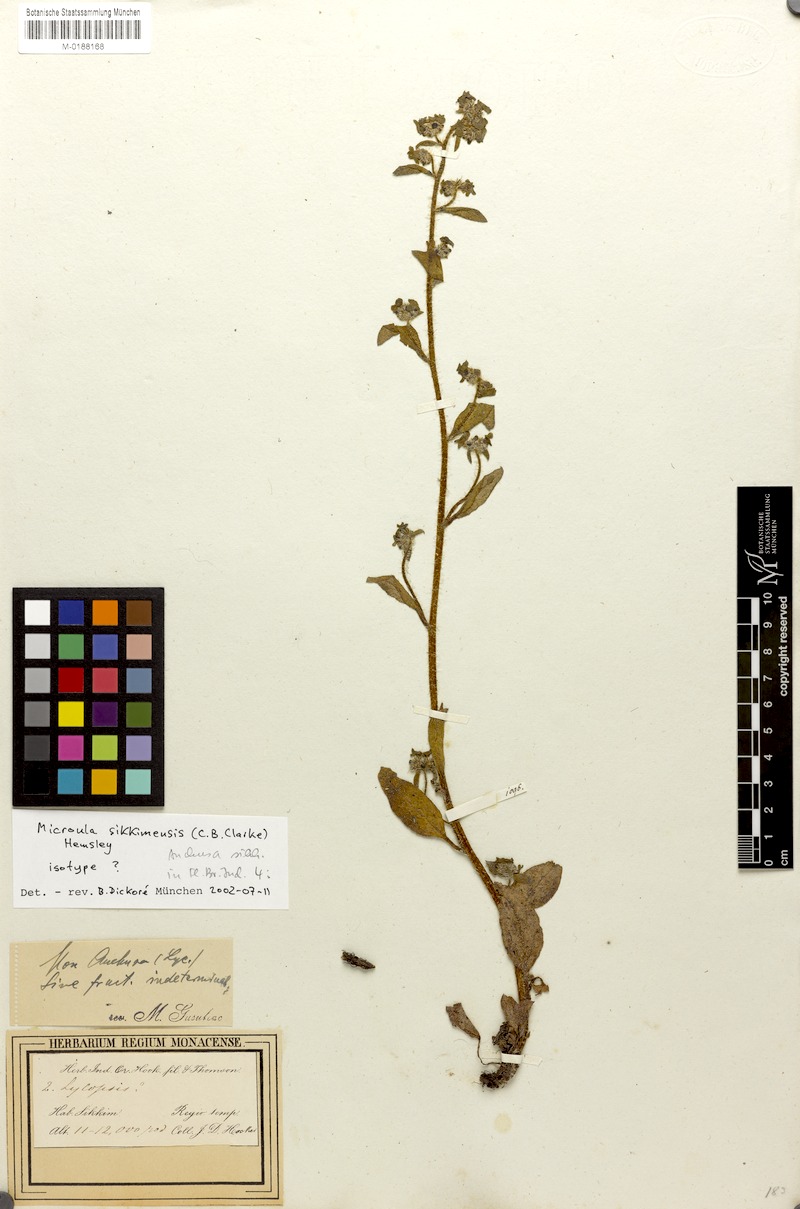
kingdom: Plantae
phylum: Tracheophyta
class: Magnoliopsida
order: Boraginales
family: Boraginaceae
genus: Microula
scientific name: Microula sikkimensis
